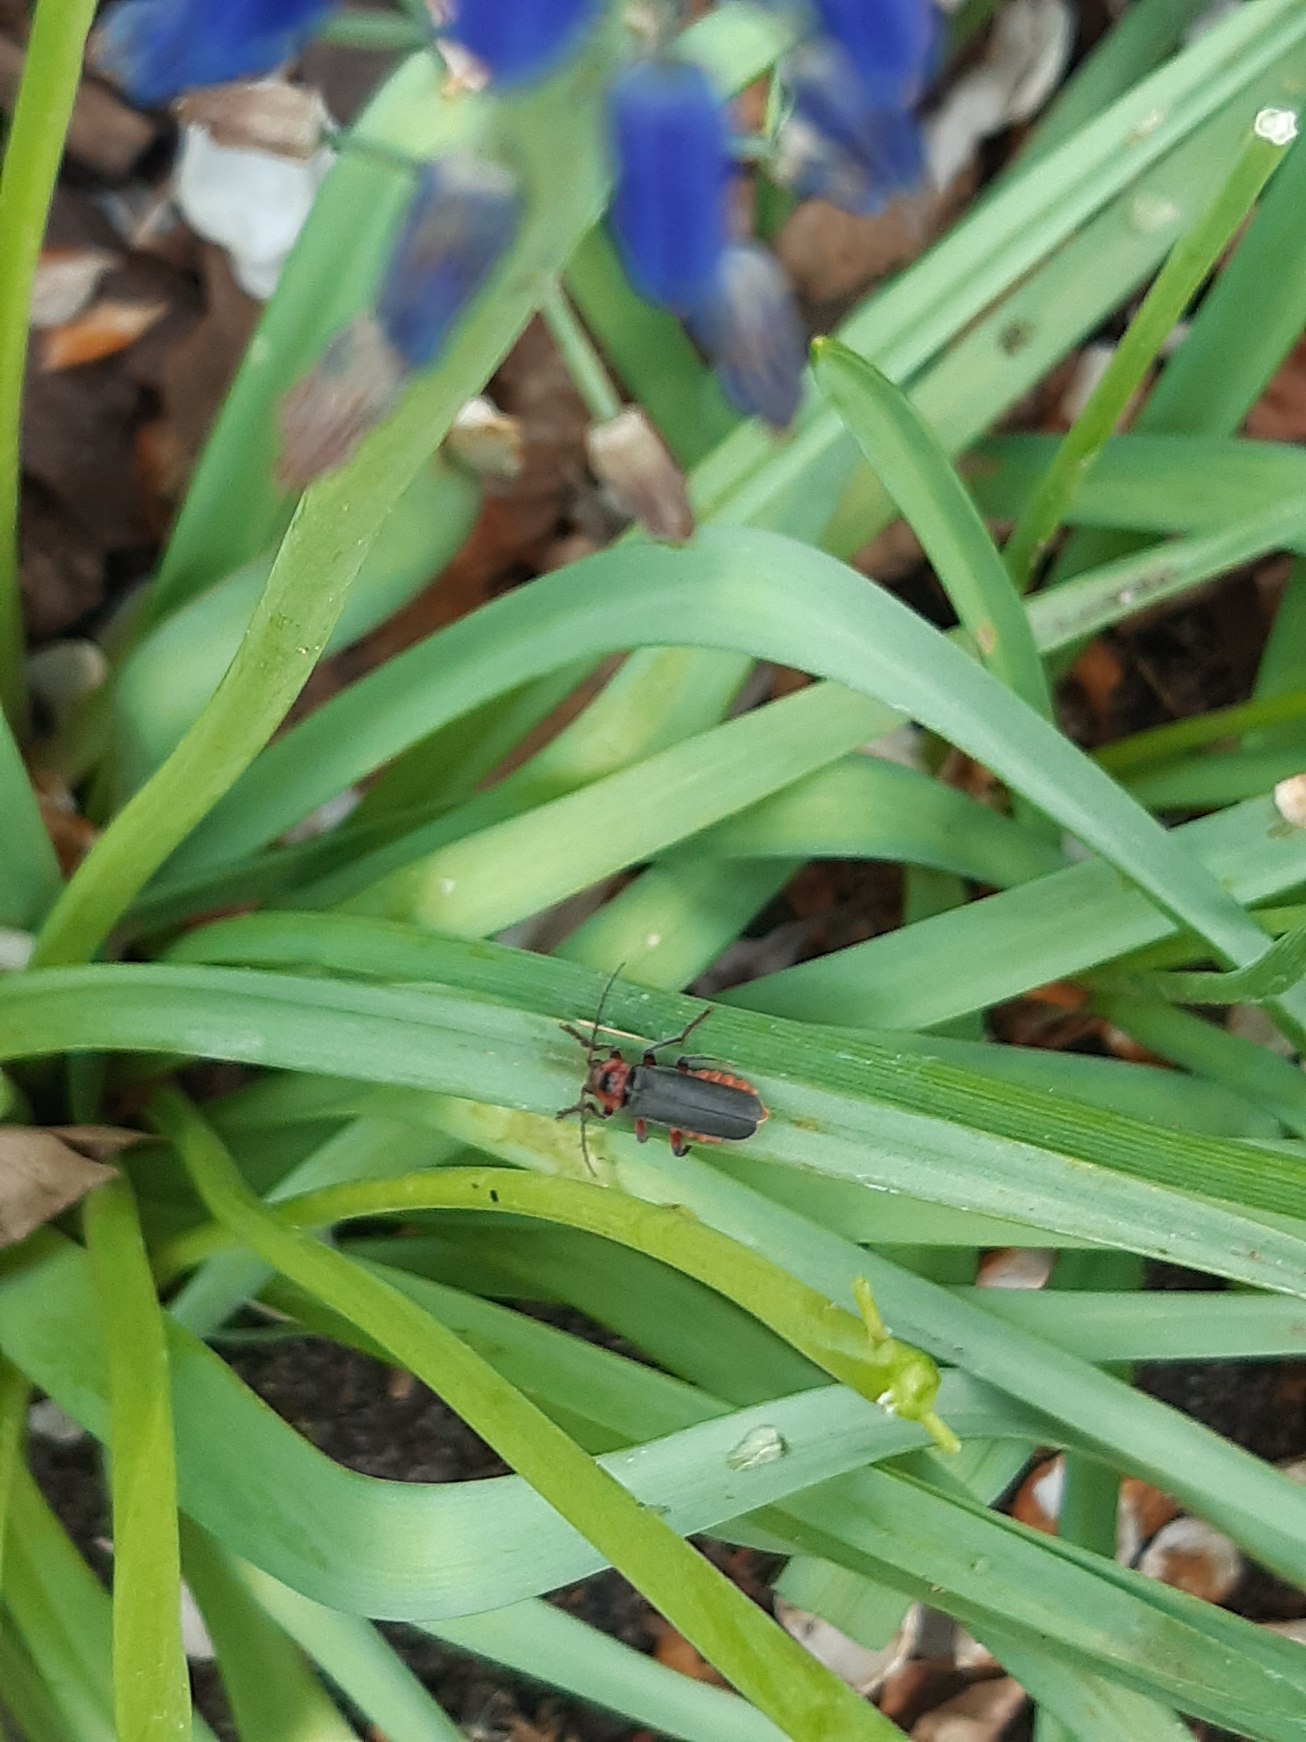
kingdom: Animalia
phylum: Arthropoda
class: Insecta
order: Coleoptera
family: Cantharidae
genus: Cantharis
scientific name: Cantharis rustica
